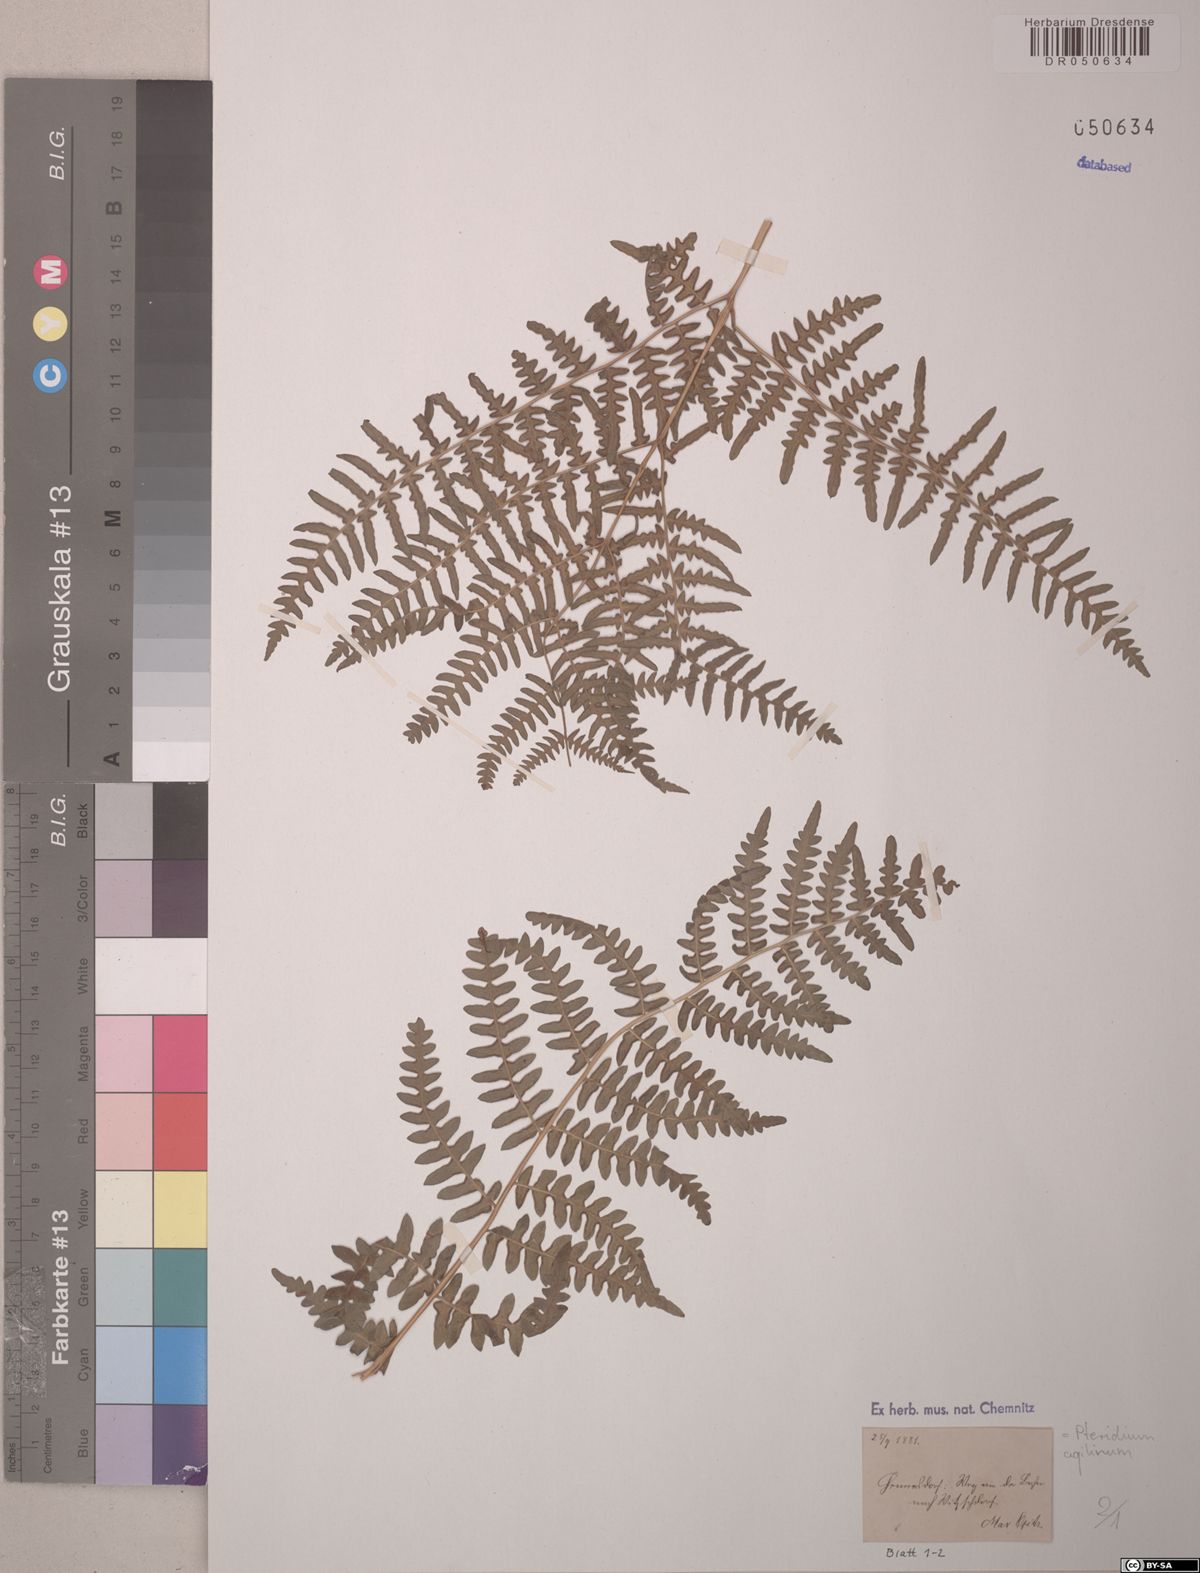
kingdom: Plantae
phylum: Tracheophyta
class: Polypodiopsida
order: Polypodiales
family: Dennstaedtiaceae
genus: Pteridium
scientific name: Pteridium aquilinum
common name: Bracken
